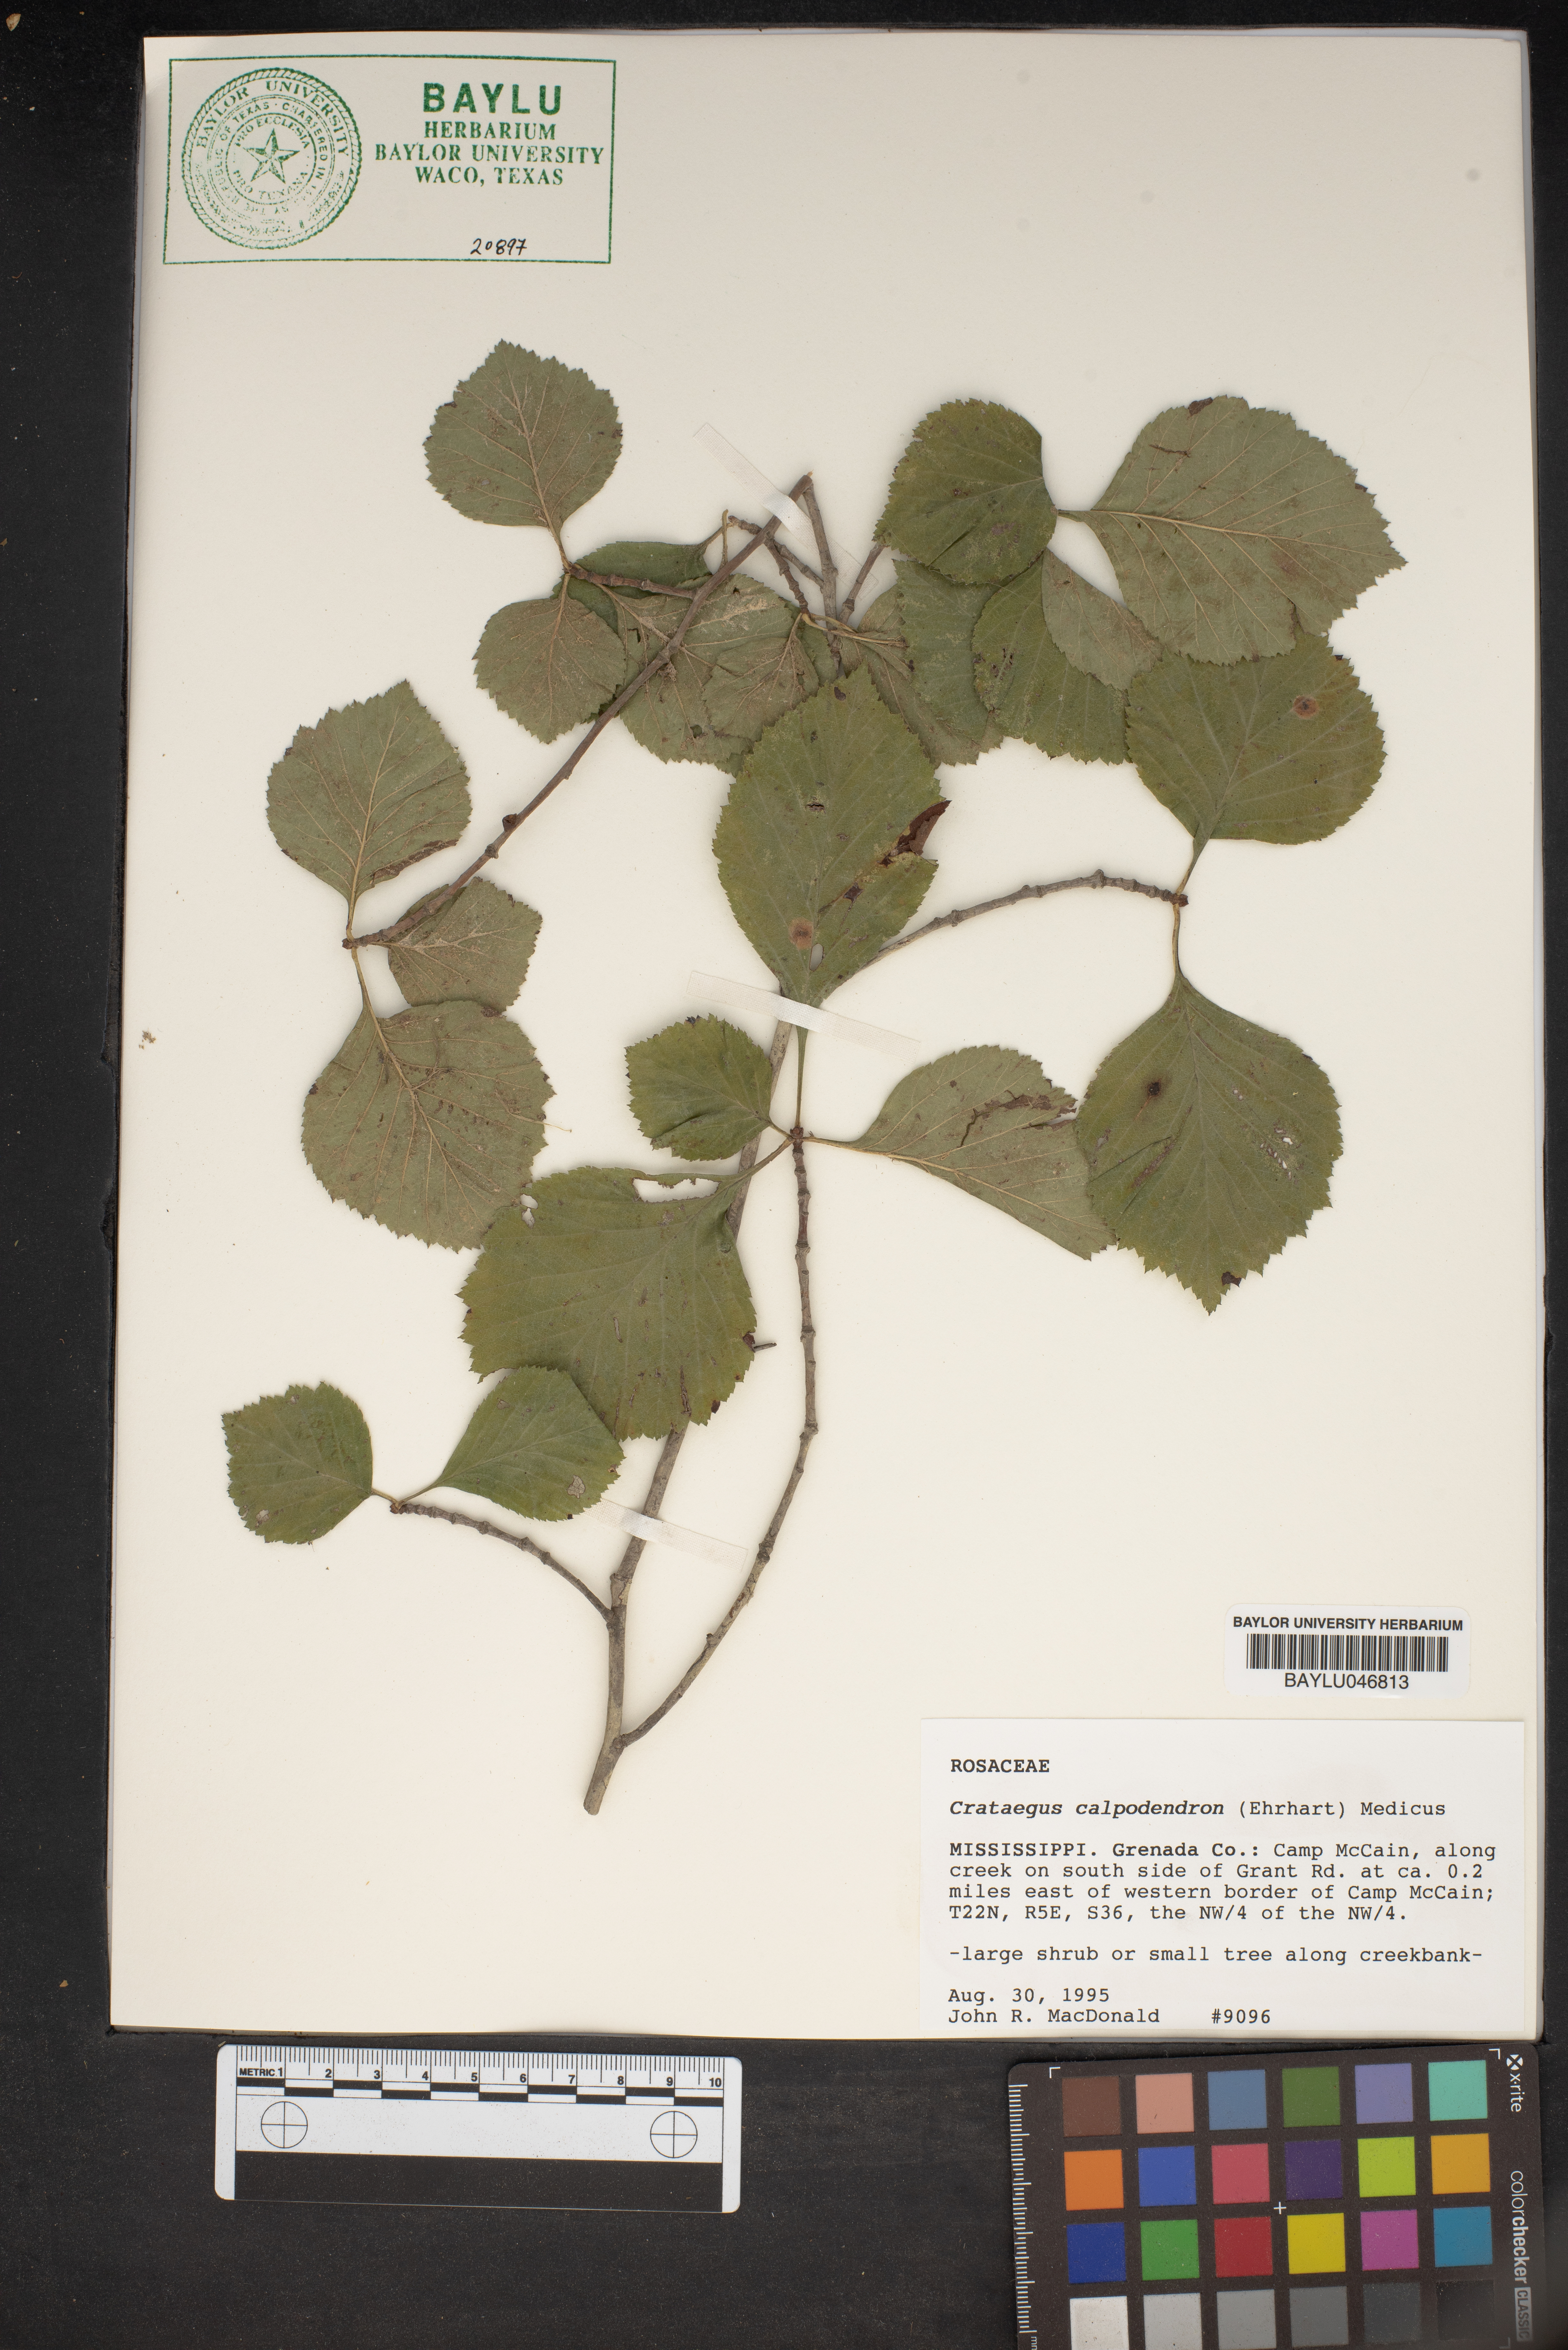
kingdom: Plantae
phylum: Tracheophyta
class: Magnoliopsida
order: Rosales
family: Rosaceae
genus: Crataegus
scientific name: Crataegus calpodendron
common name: Pear hawthorn
